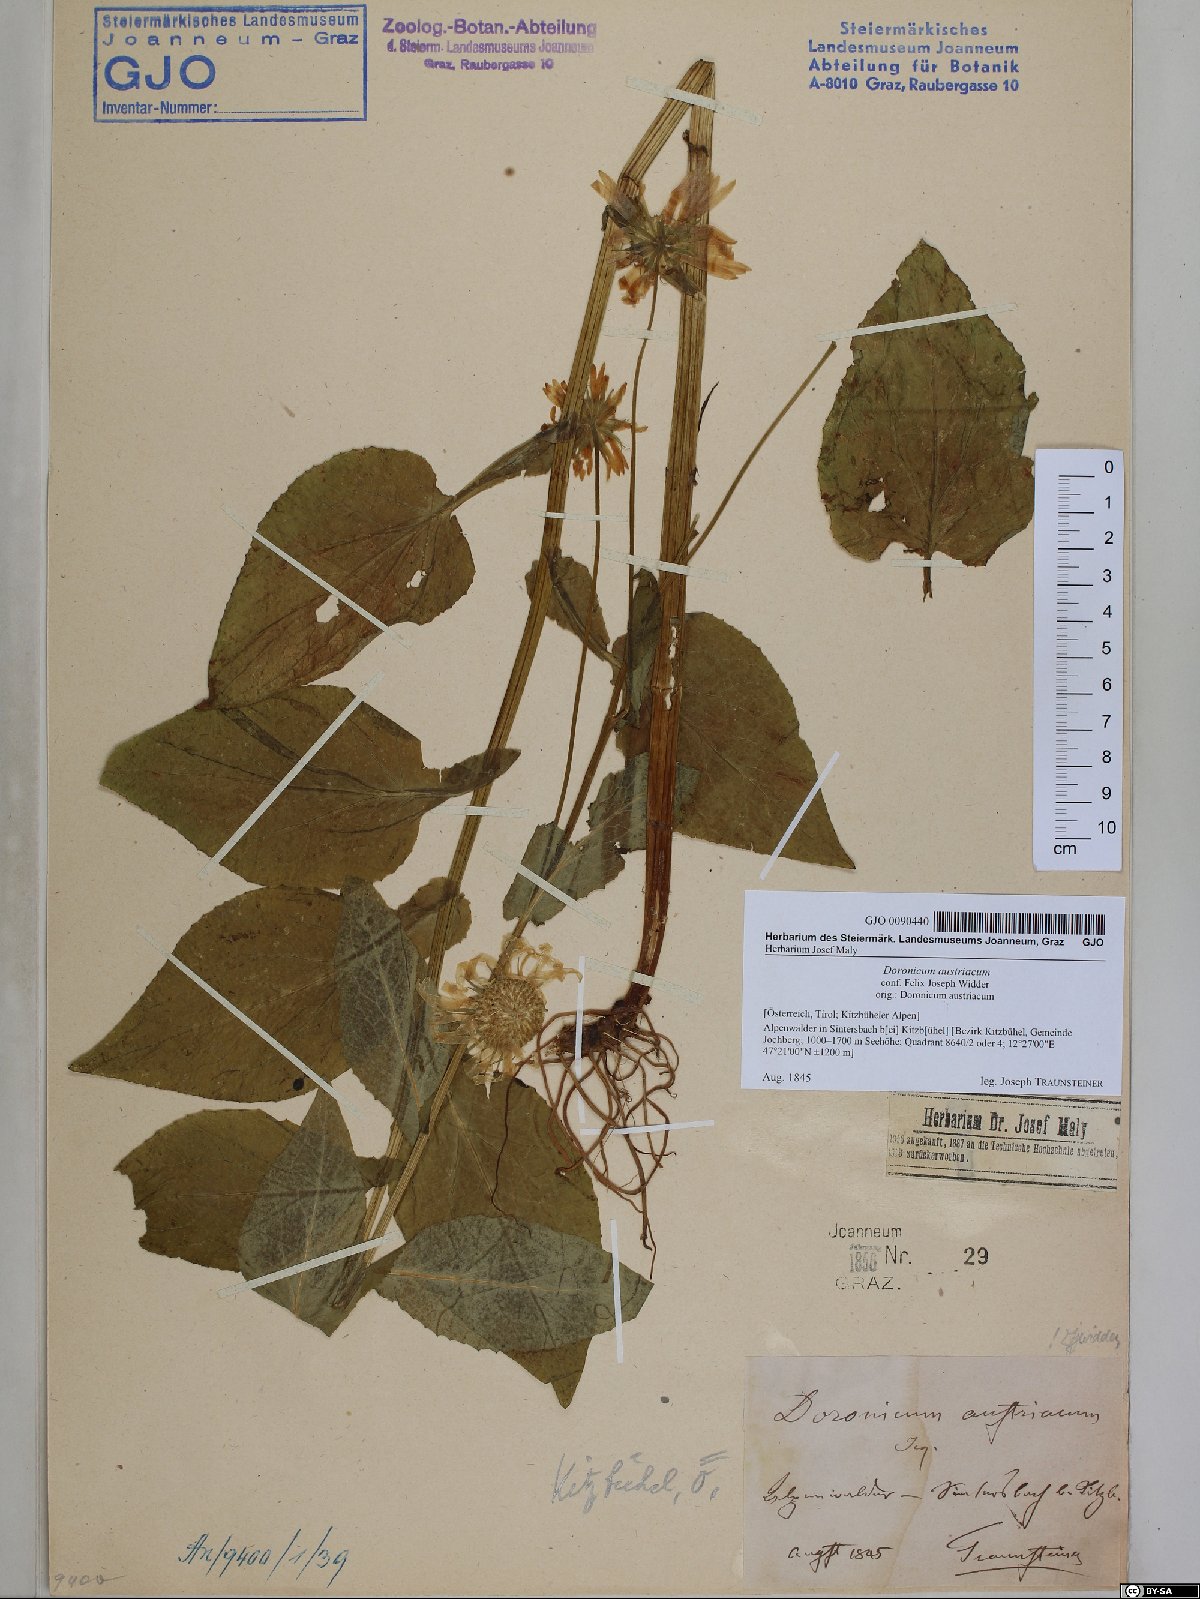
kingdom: Plantae
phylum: Tracheophyta
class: Magnoliopsida
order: Asterales
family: Asteraceae
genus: Doronicum
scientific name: Doronicum austriacum
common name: Austrian leopard's-bane
